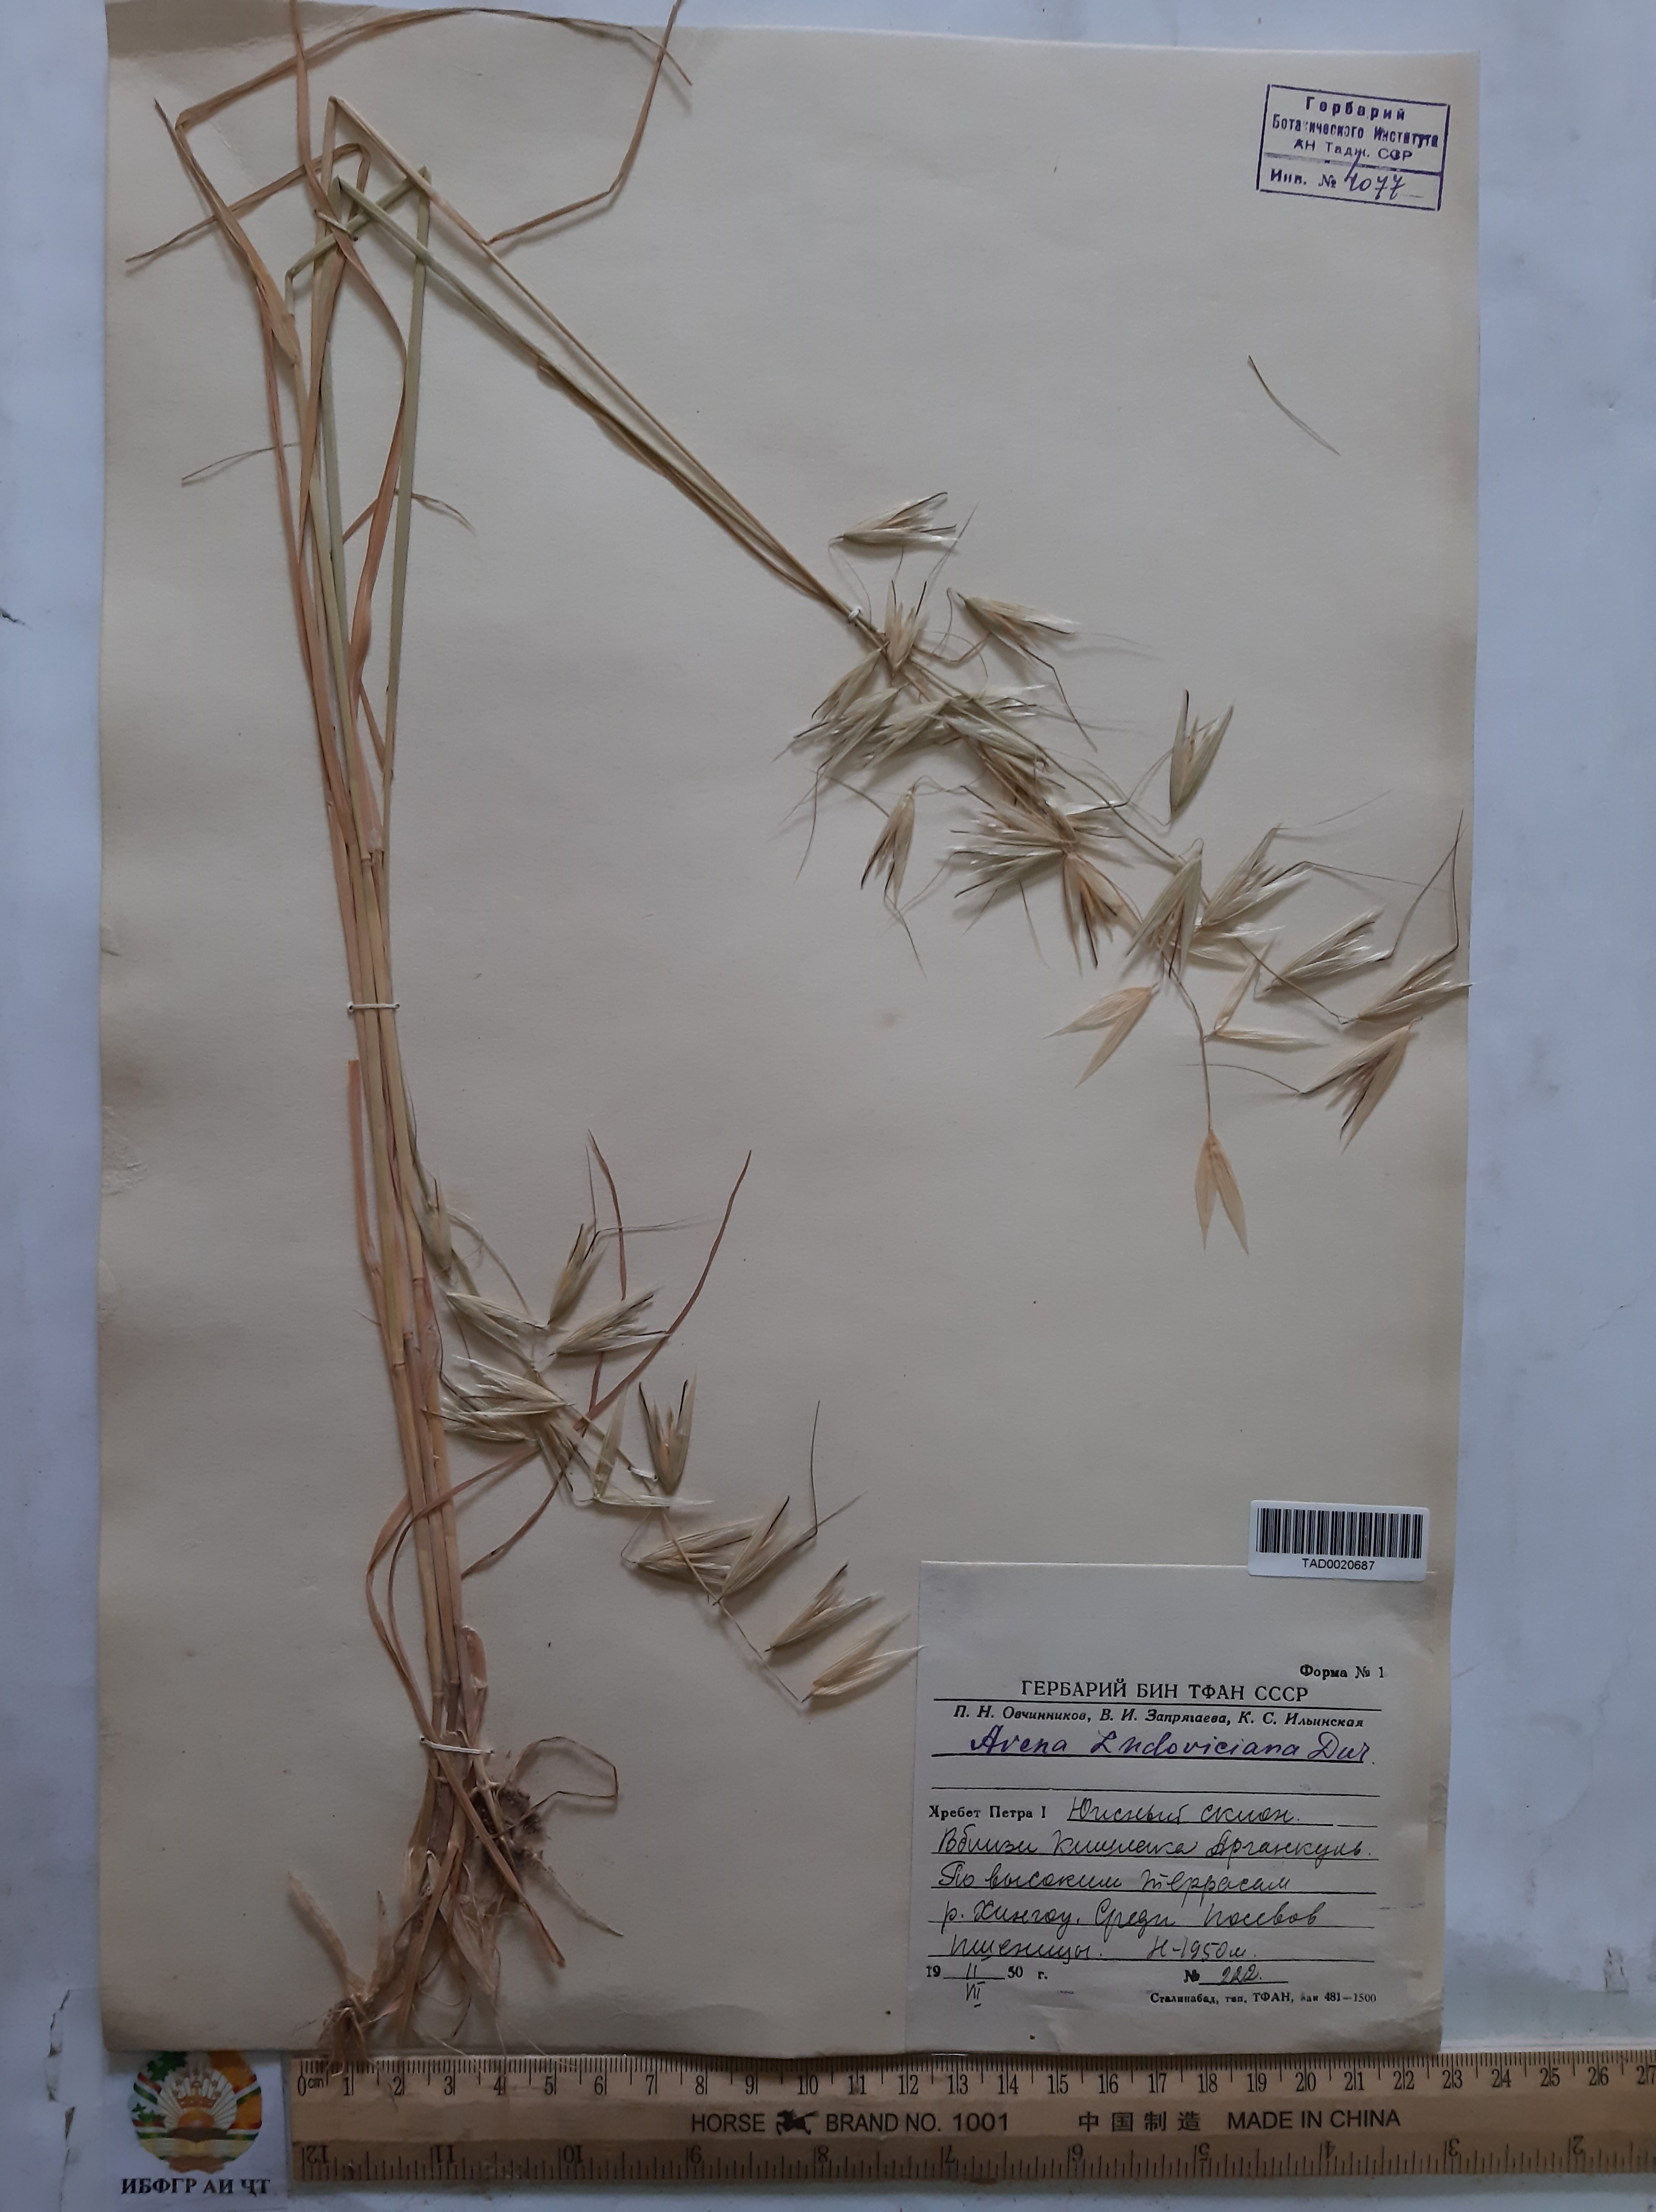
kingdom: Plantae
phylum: Tracheophyta
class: Liliopsida
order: Poales
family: Poaceae
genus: Avena
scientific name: Avena sterilis
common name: Animated oat
